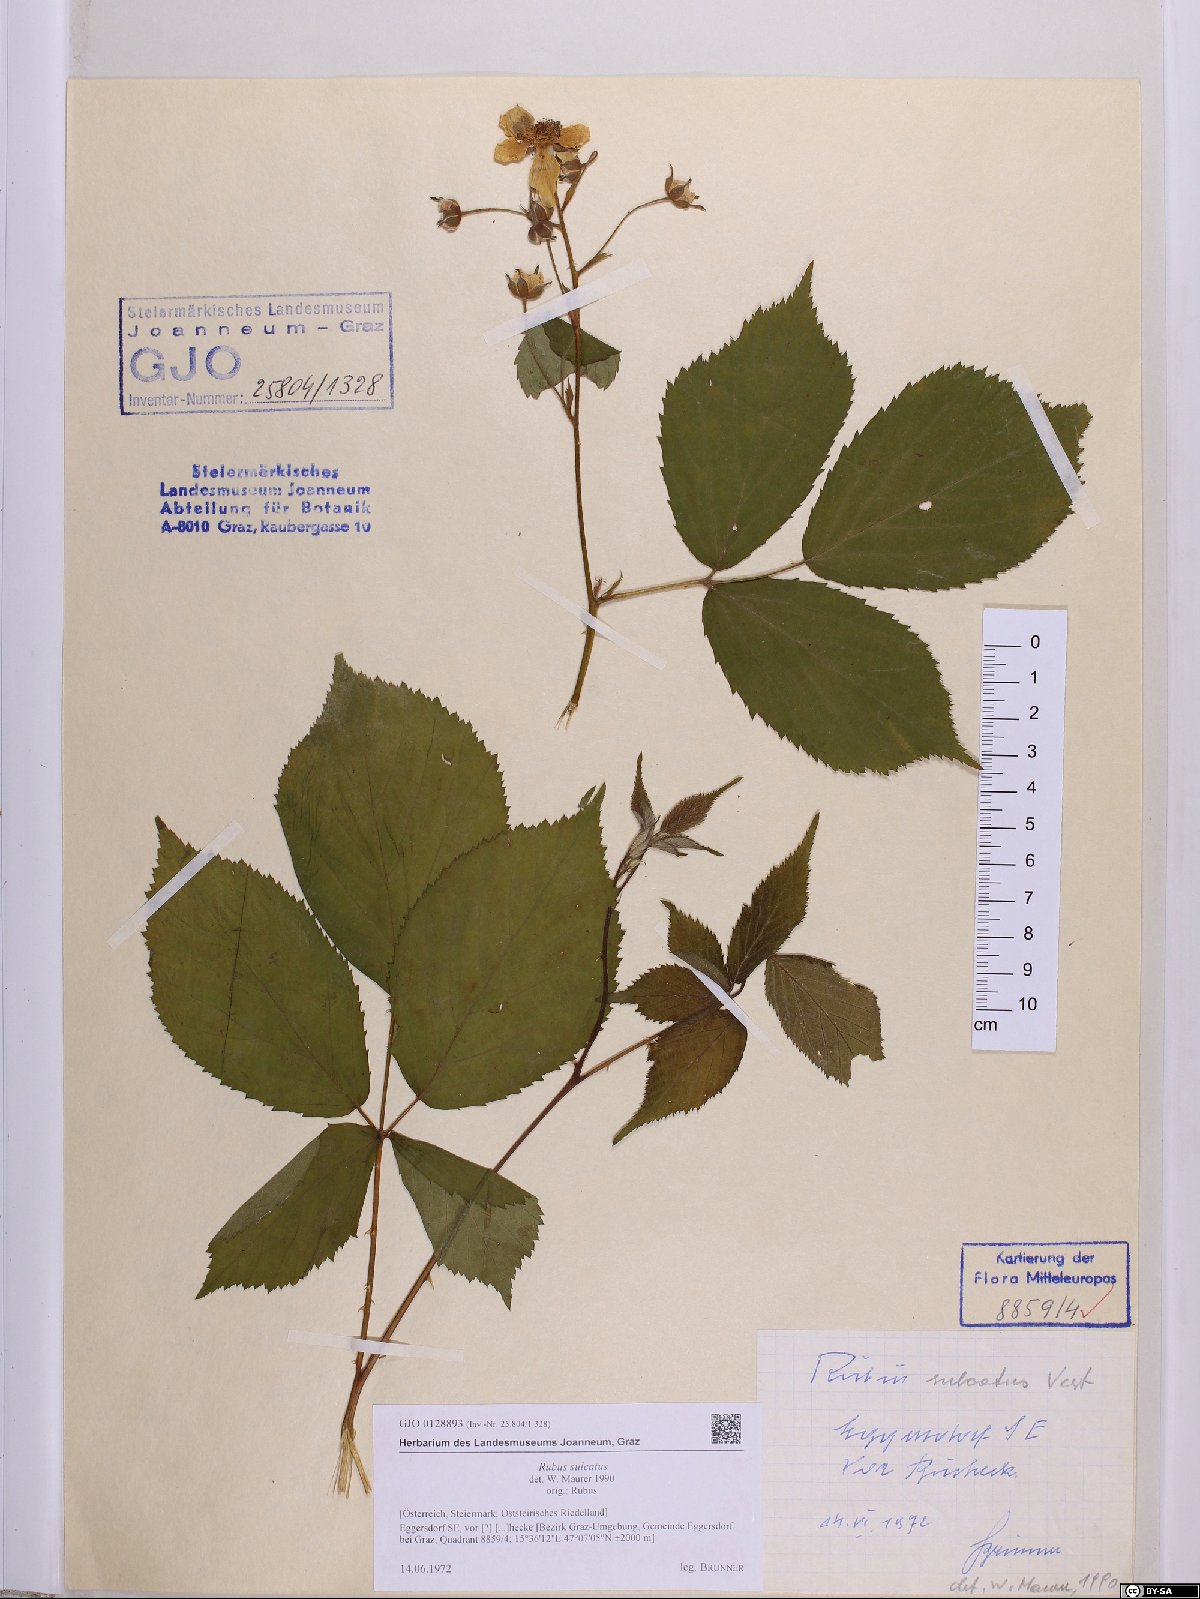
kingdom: Plantae
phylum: Tracheophyta
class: Magnoliopsida
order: Rosales
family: Rosaceae
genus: Rubus
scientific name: Rubus sulcatus
